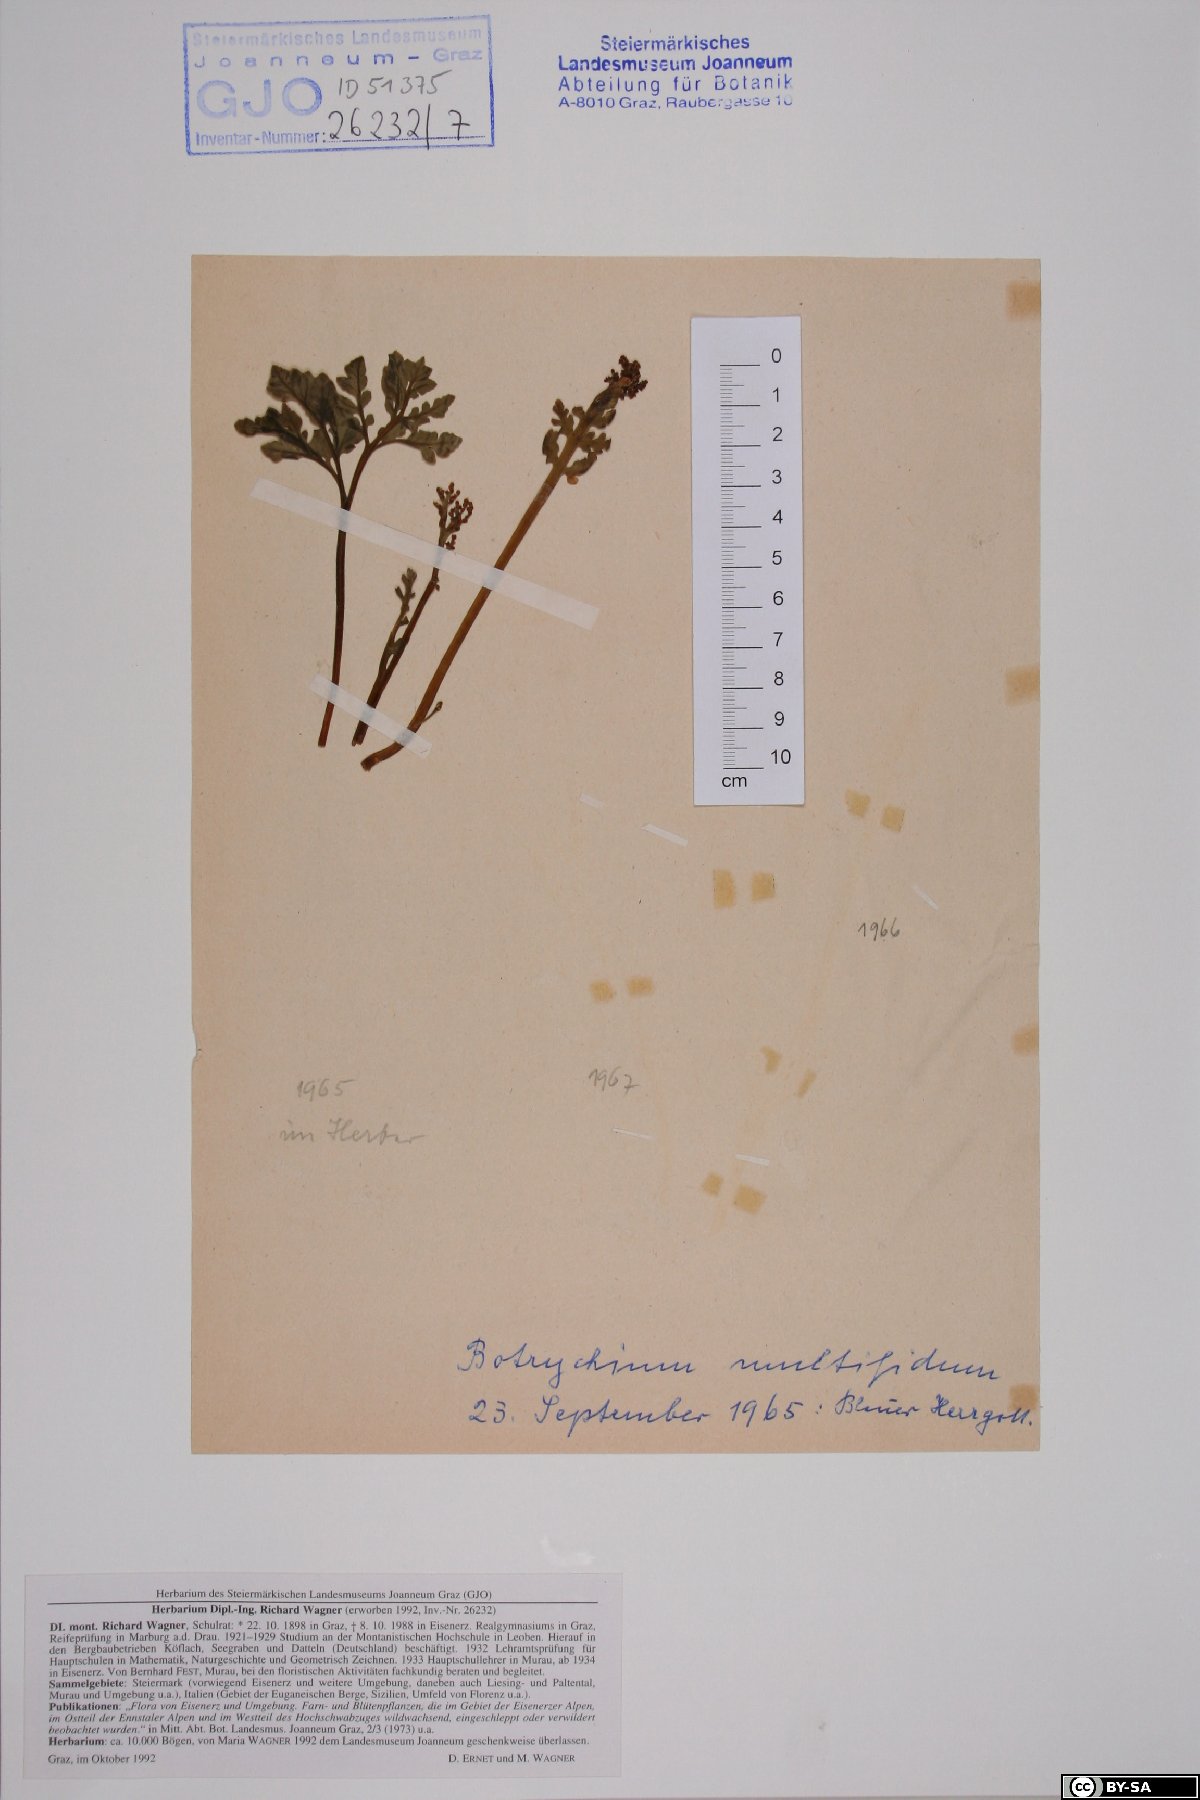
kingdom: Plantae
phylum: Tracheophyta
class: Polypodiopsida
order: Ophioglossales
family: Ophioglossaceae
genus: Sceptridium
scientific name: Sceptridium multifidum
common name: Leathery grape fern
